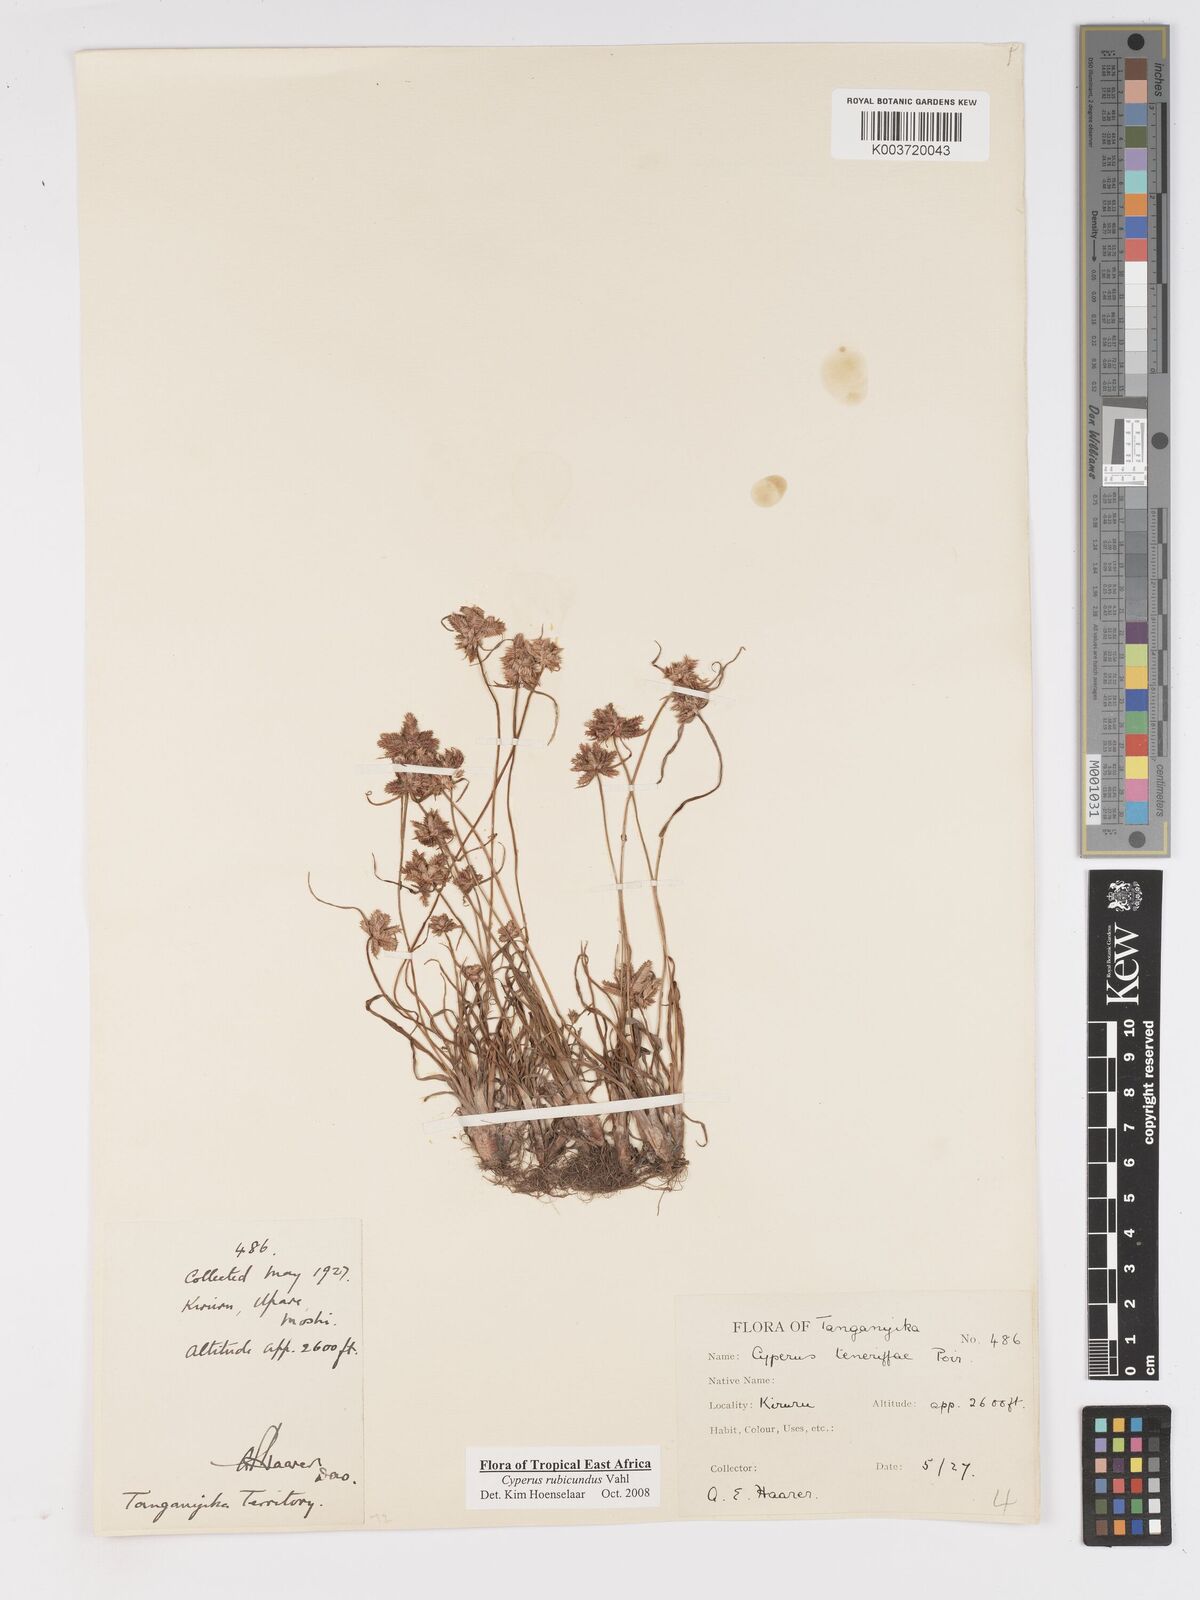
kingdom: Plantae
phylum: Tracheophyta
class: Liliopsida
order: Poales
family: Cyperaceae
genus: Cyperus
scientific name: Cyperus rubicundus
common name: Coco-grass
